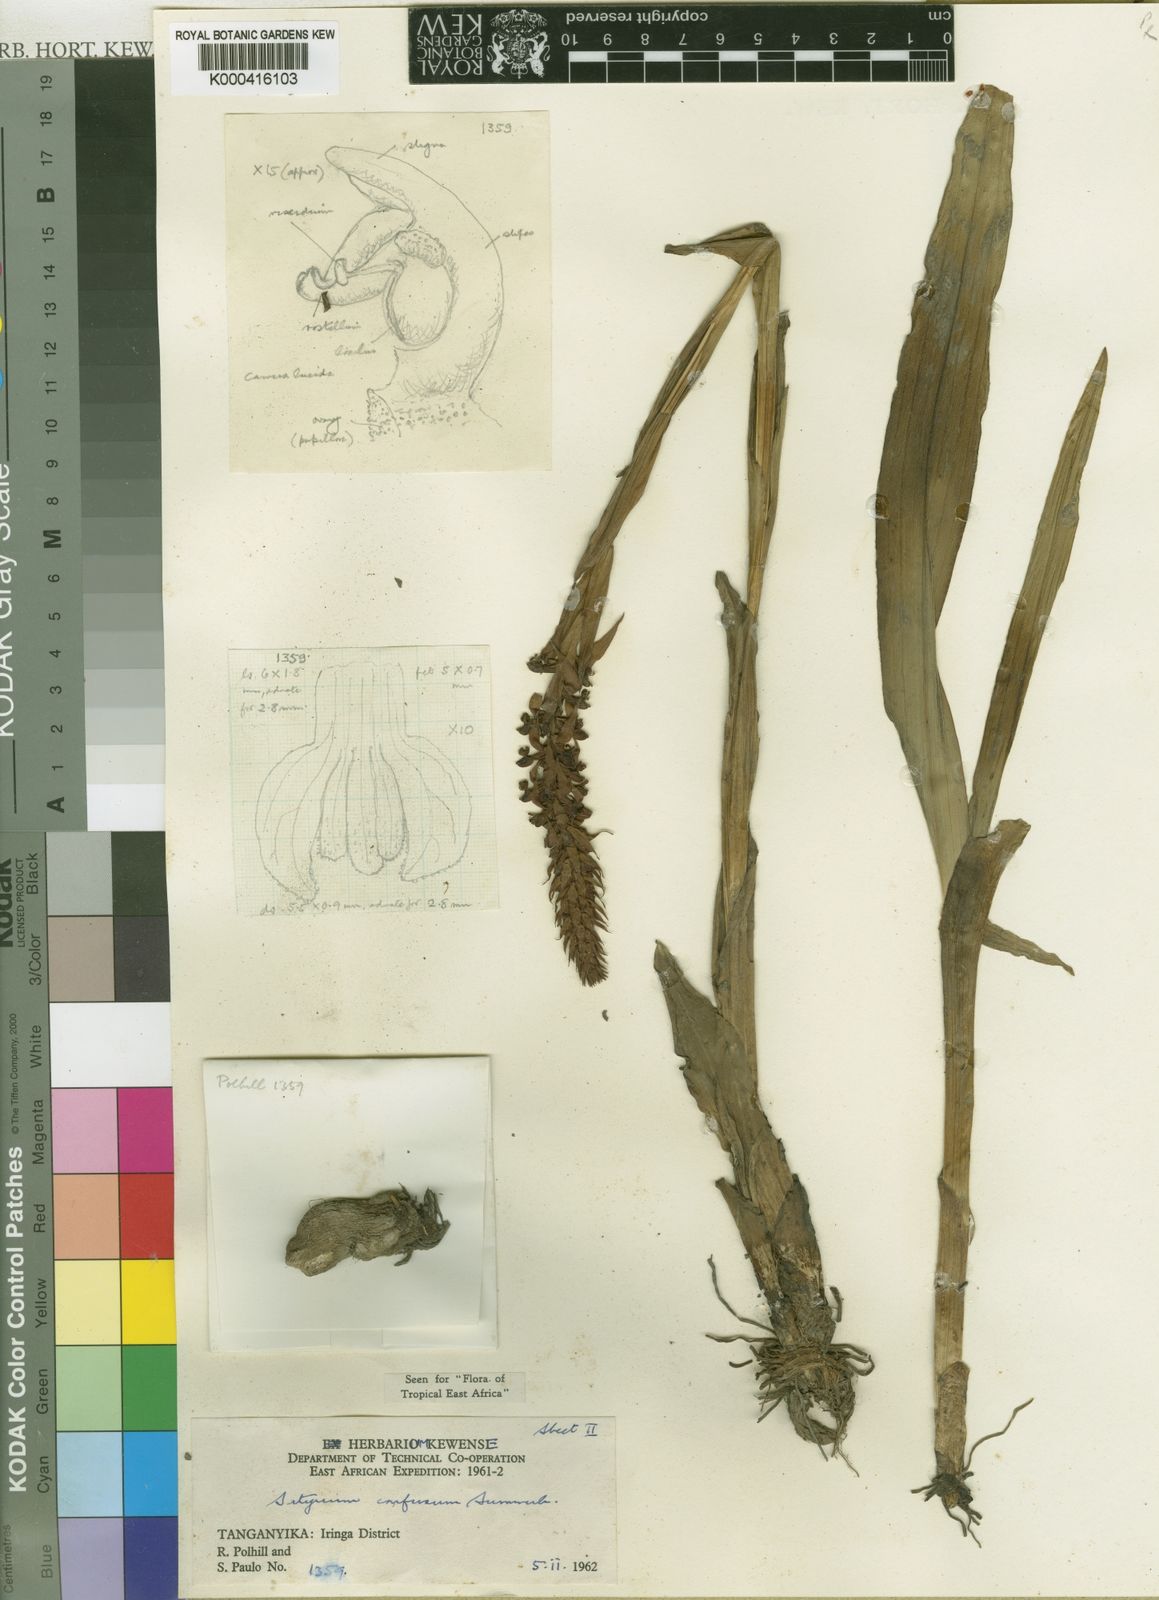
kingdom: Plantae
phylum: Tracheophyta
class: Liliopsida
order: Asparagales
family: Orchidaceae
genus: Satyrium
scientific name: Satyrium confusum
